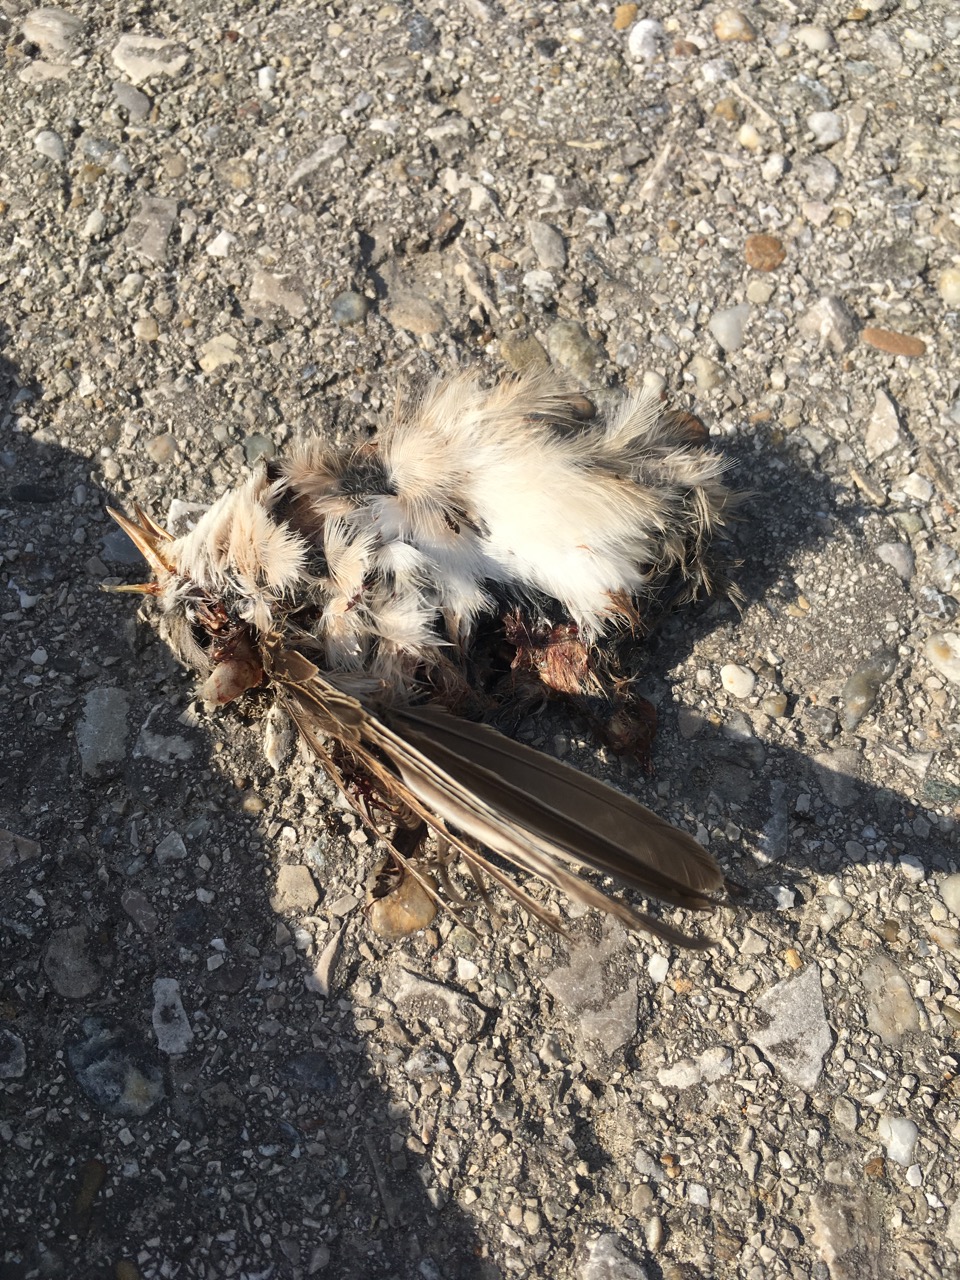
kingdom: Animalia
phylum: Chordata
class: Aves
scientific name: Aves
